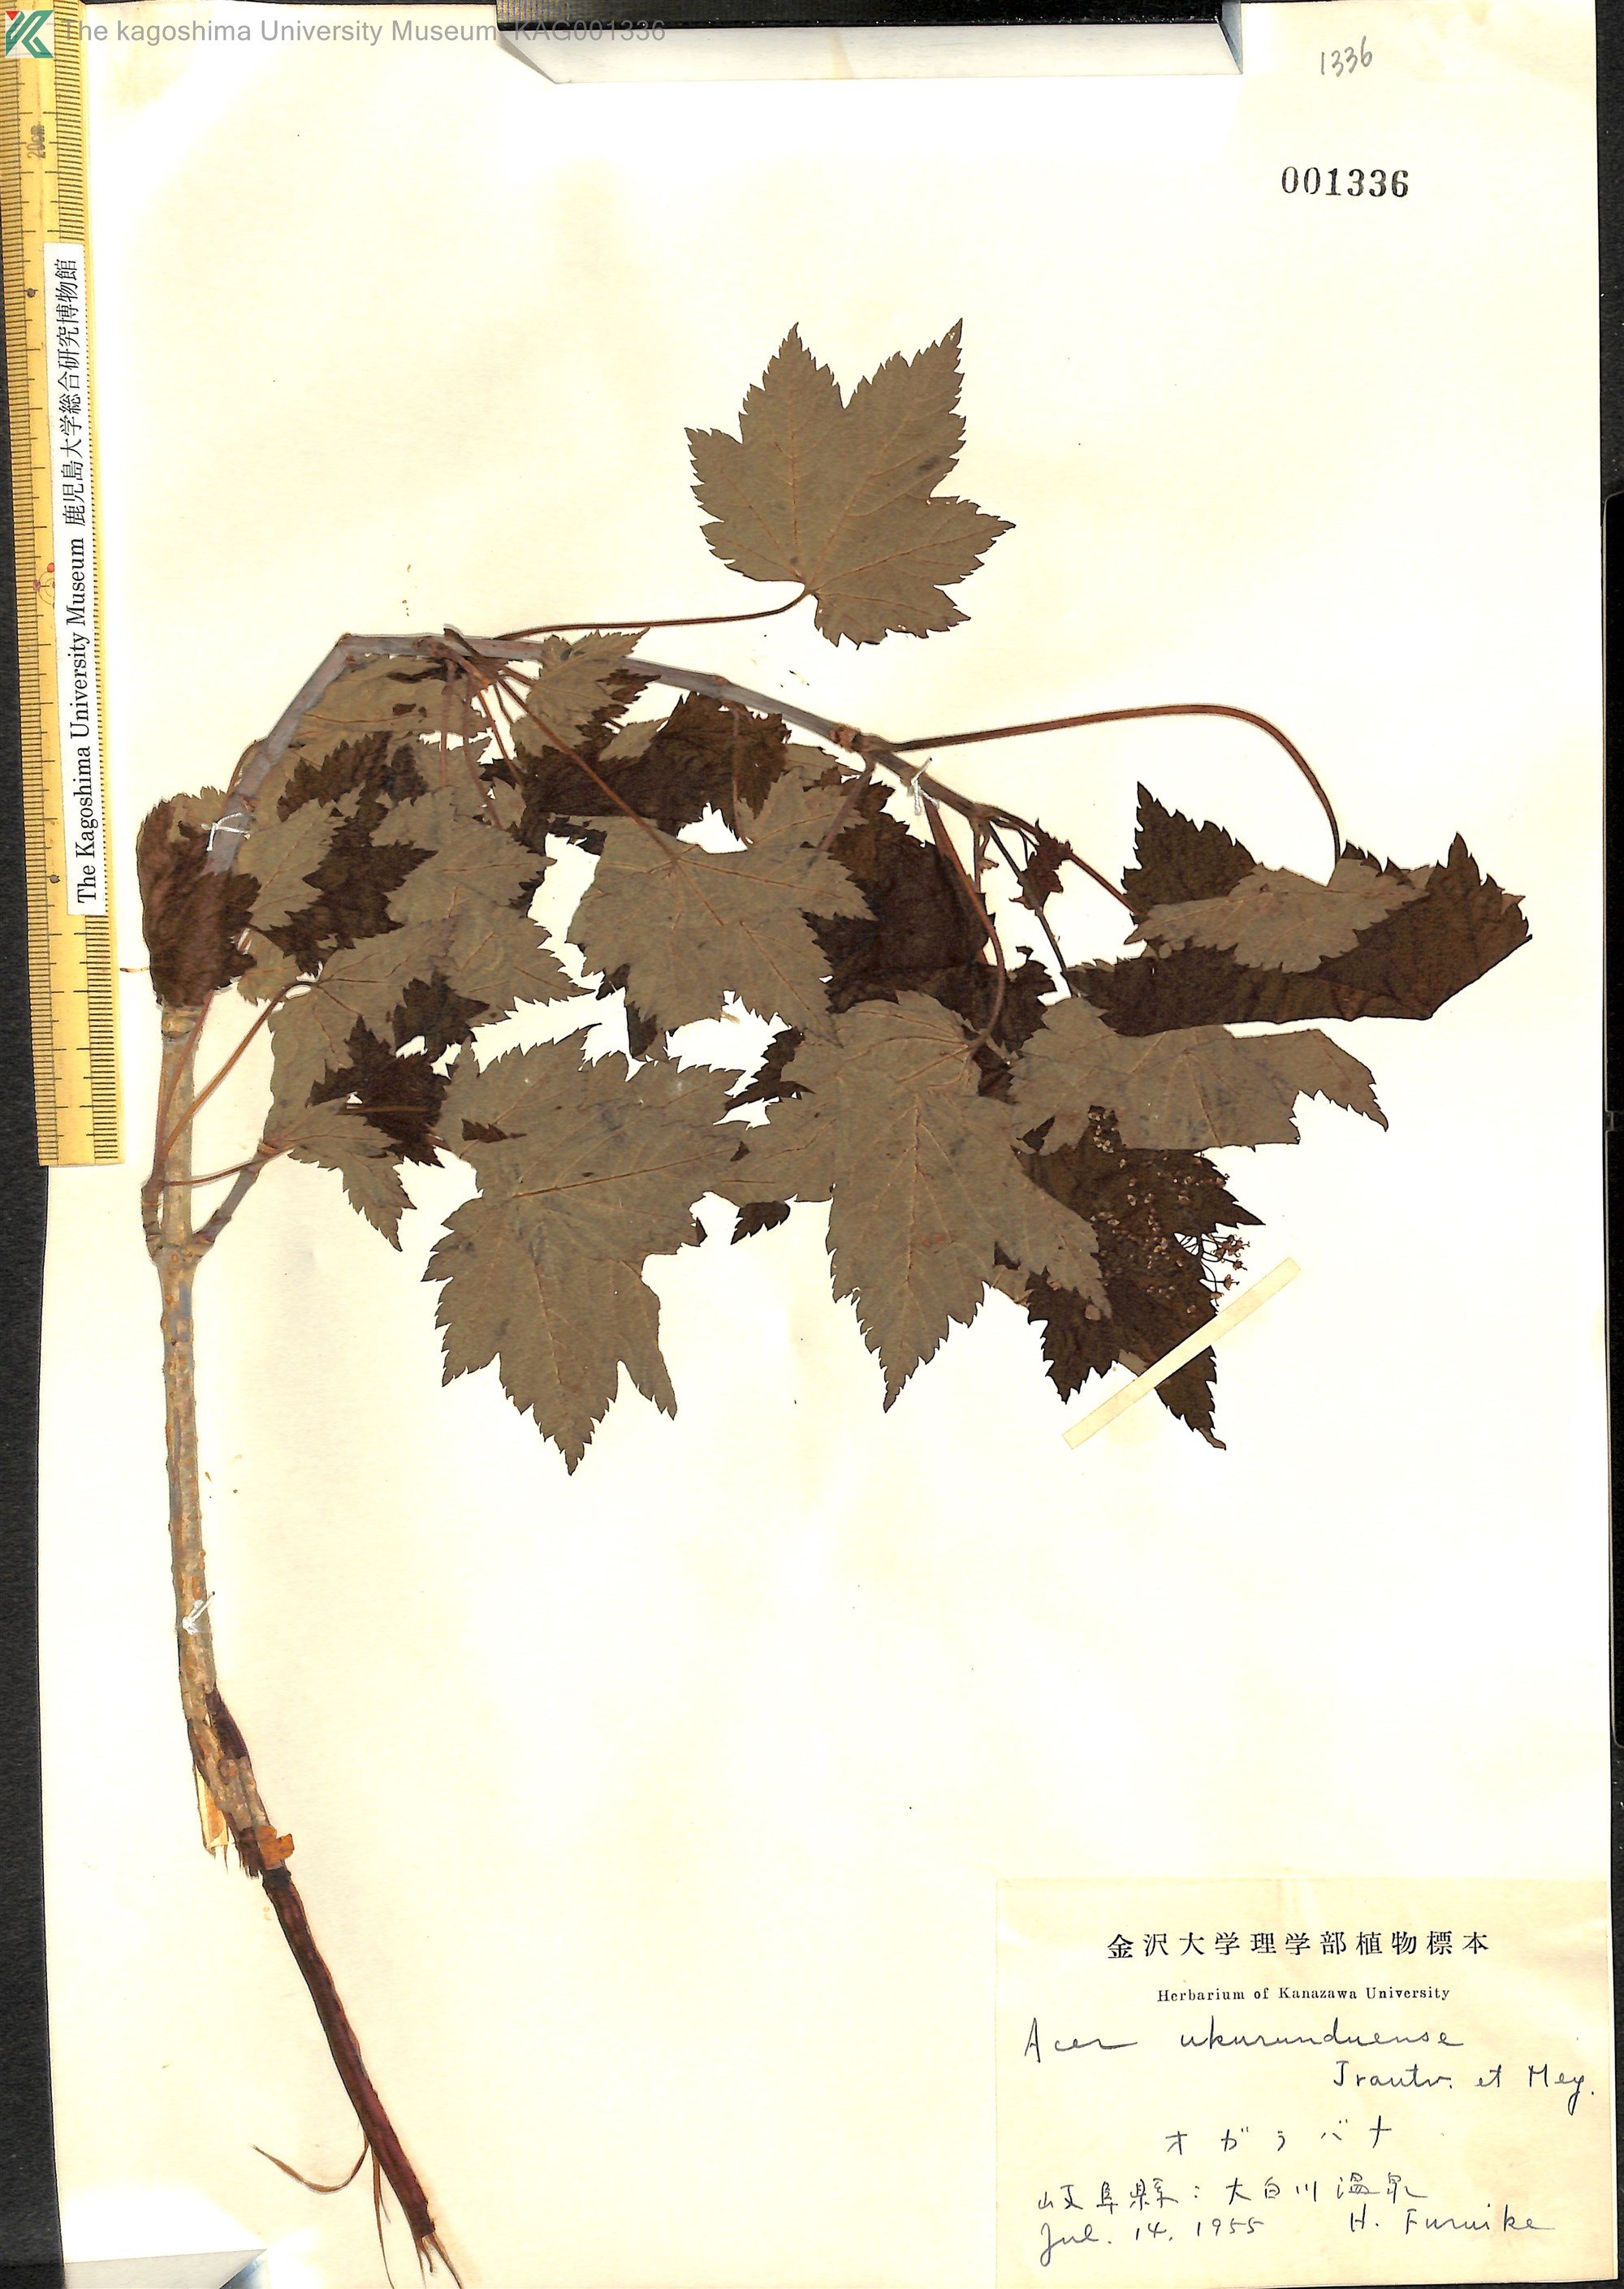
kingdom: Plantae
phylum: Tracheophyta
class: Magnoliopsida
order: Sapindales
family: Sapindaceae
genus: Acer
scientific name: Acer ukurunduense
